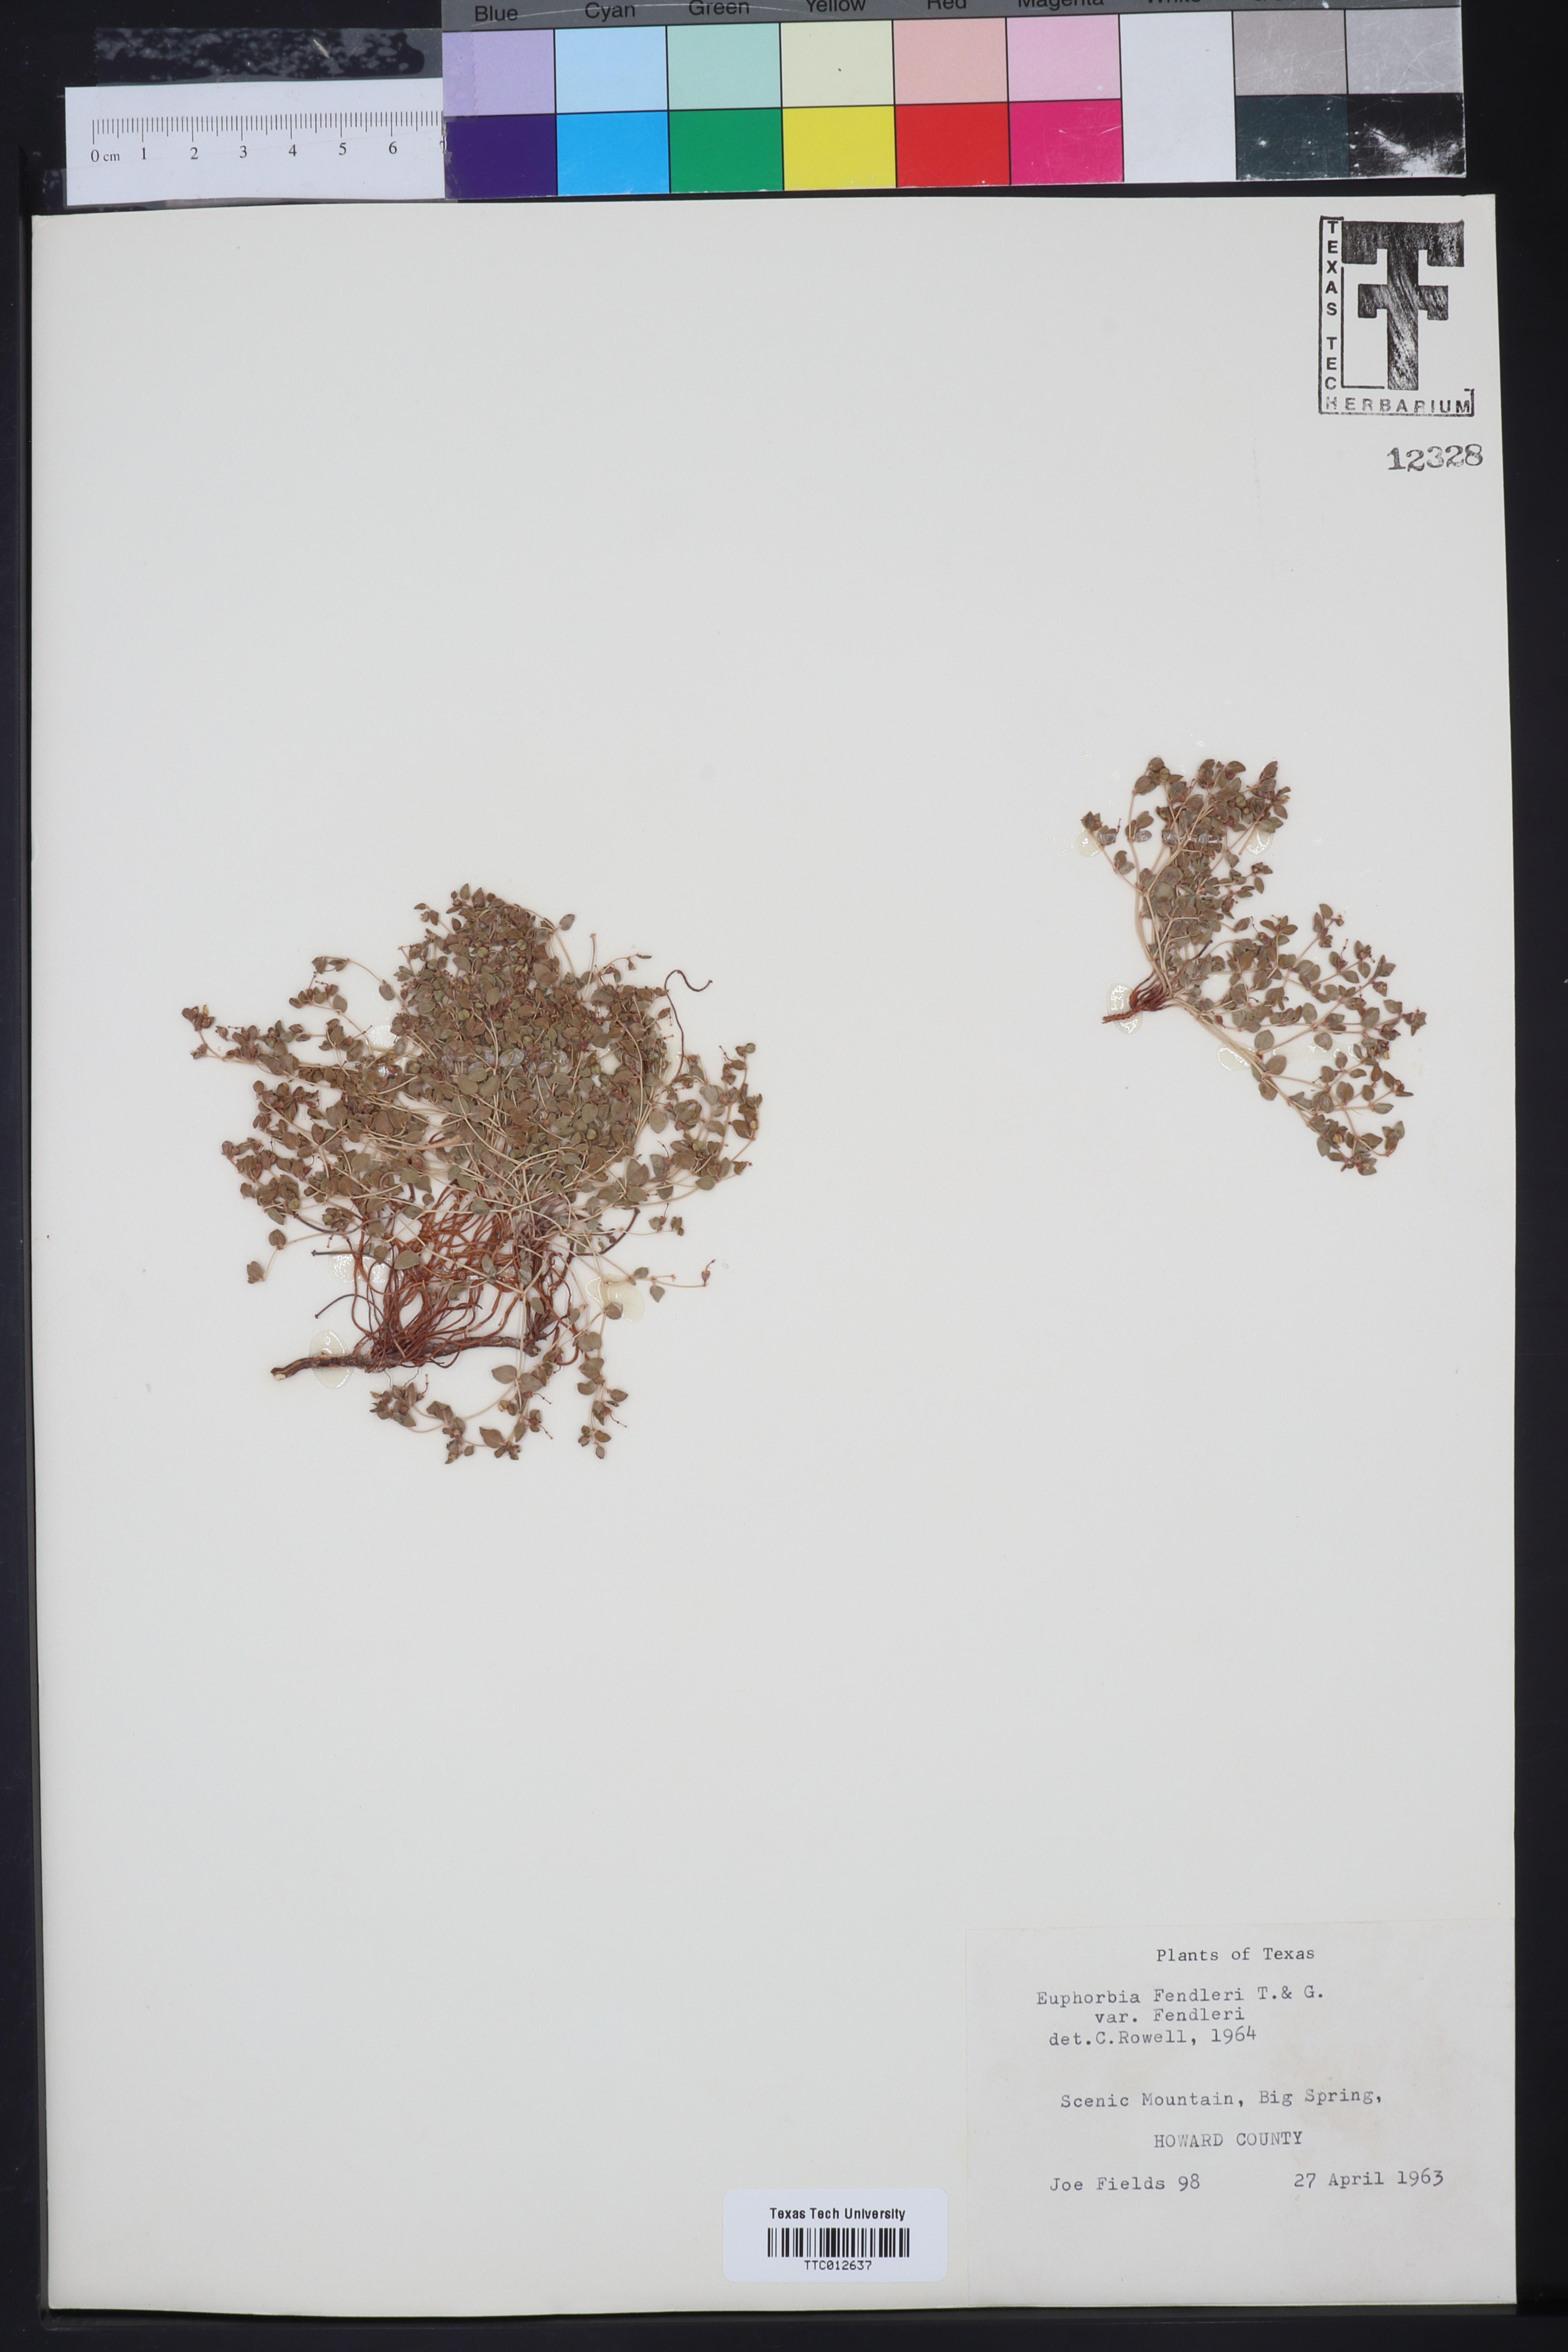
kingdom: Plantae
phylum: Tracheophyta
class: Magnoliopsida
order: Malpighiales
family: Euphorbiaceae
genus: Euphorbia
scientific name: Euphorbia fendleri
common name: Fendler's euphorbia
